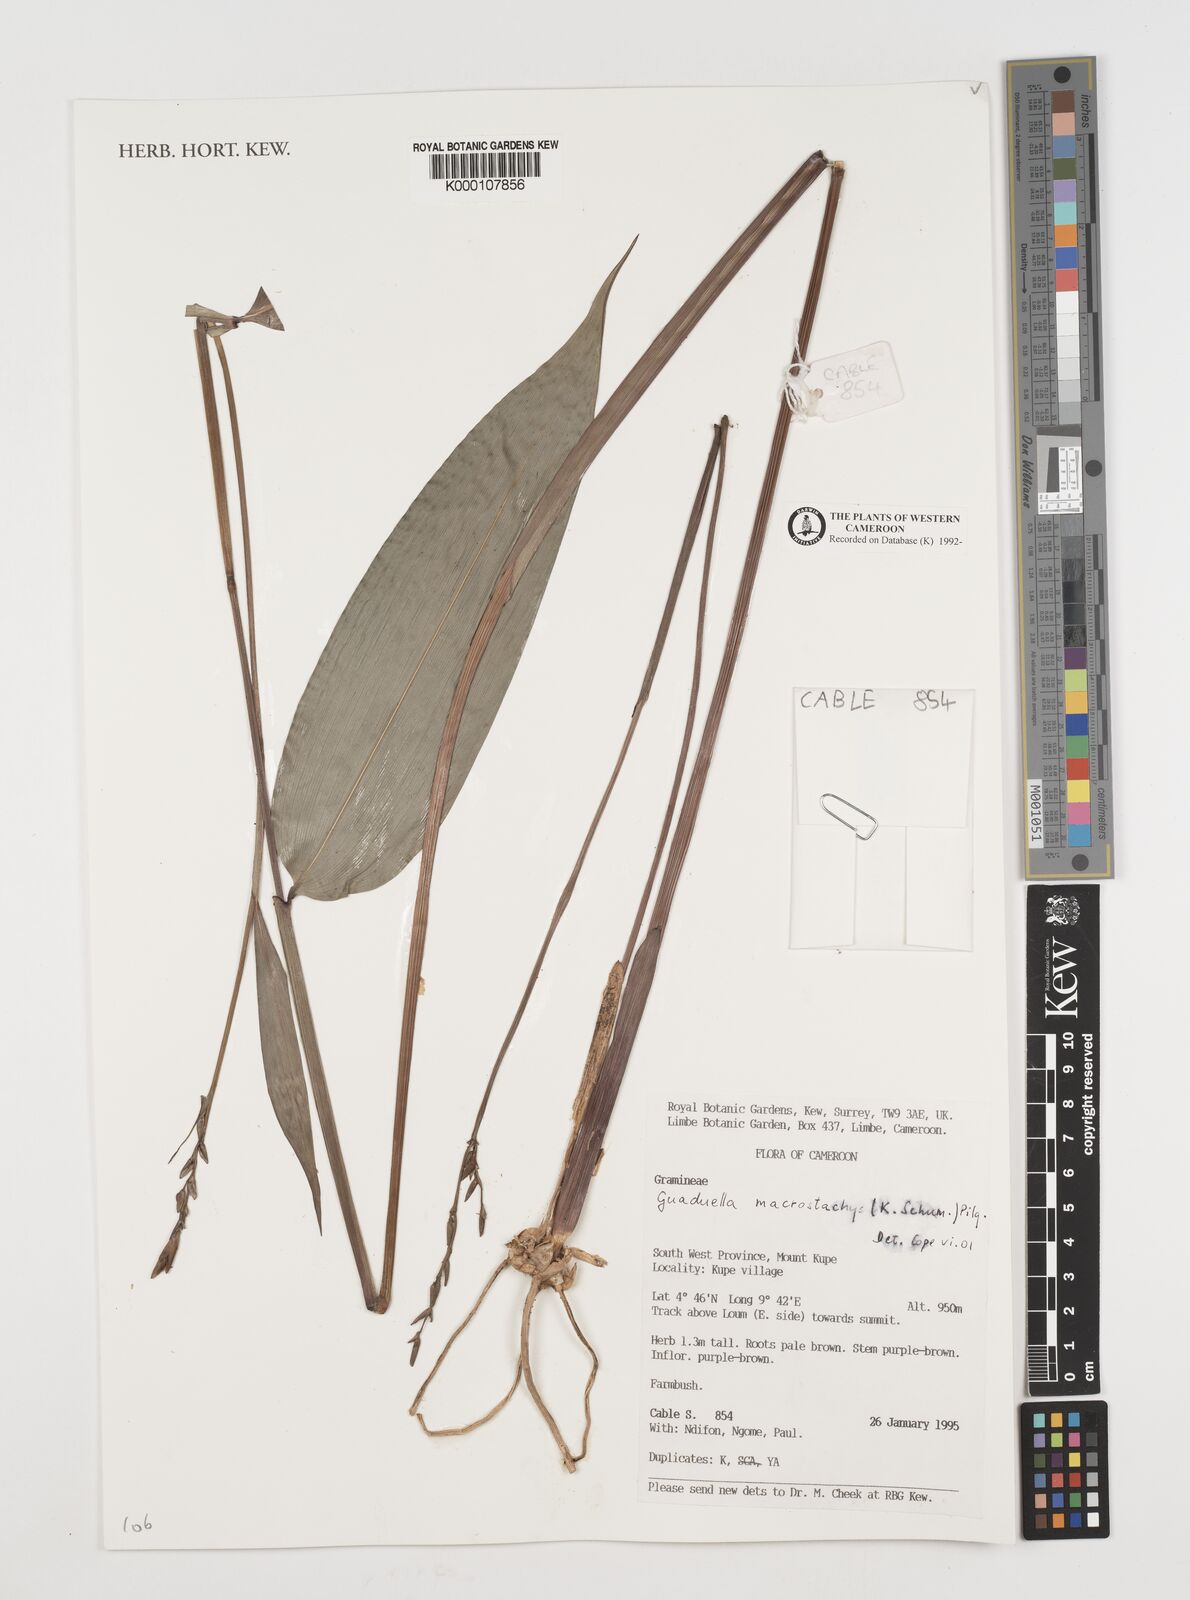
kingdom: Plantae
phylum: Tracheophyta
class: Liliopsida
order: Poales
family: Poaceae
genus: Guaduella
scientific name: Guaduella macrostachys
